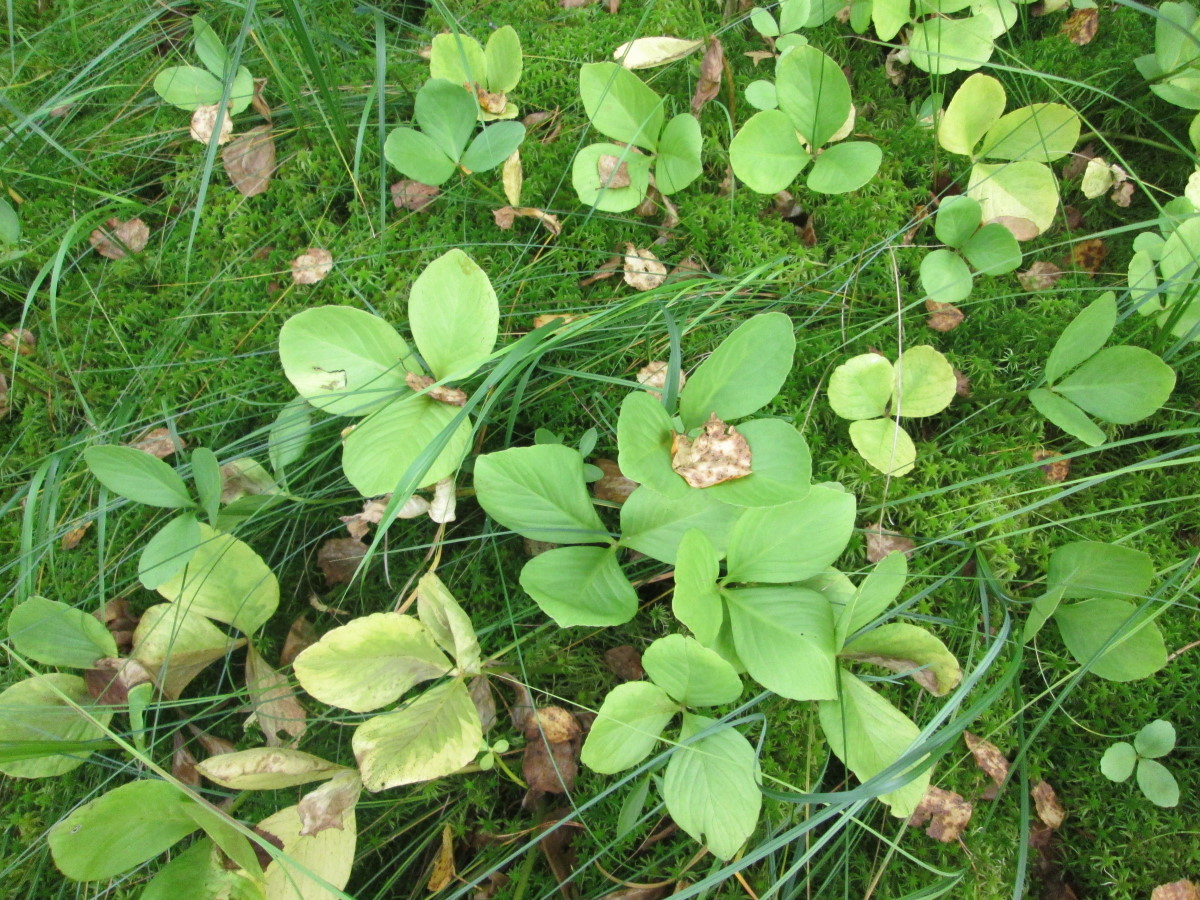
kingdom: Plantae
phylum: Tracheophyta
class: Magnoliopsida
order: Asterales
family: Menyanthaceae
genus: Menyanthes
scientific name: Menyanthes trifoliata
